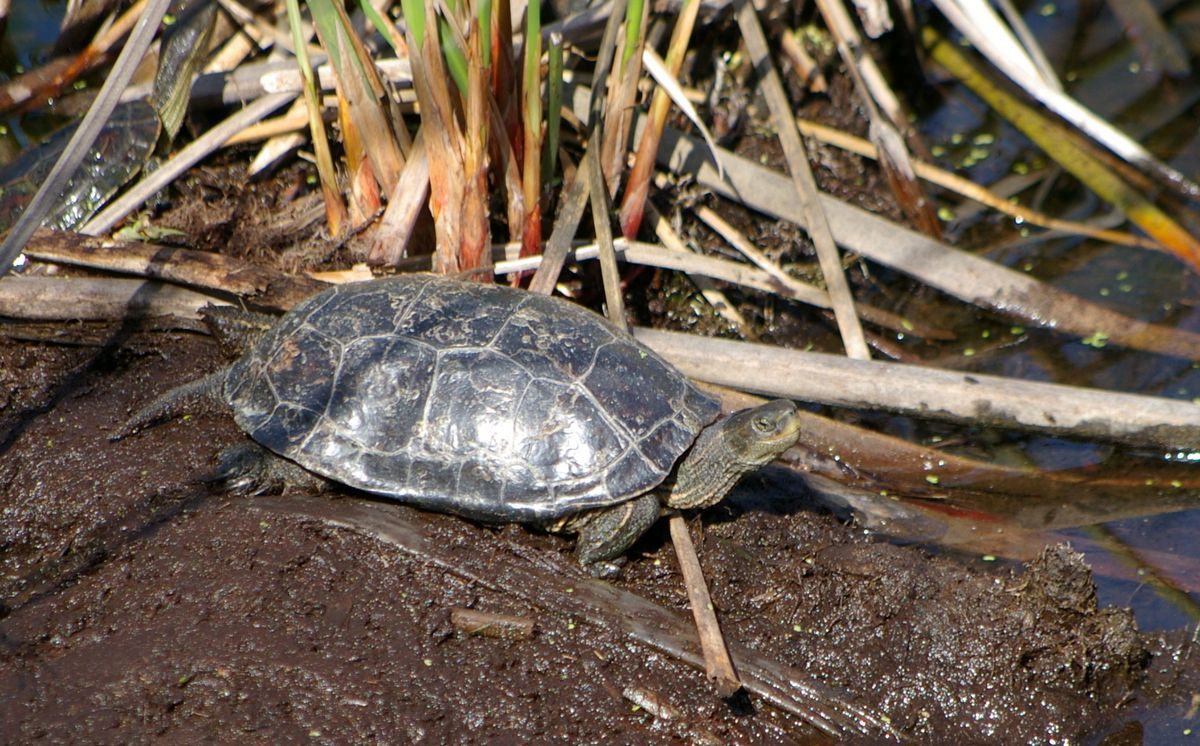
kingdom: Animalia
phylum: Chordata
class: Testudines
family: Geoemydidae
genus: Mauremys
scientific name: Mauremys caspica
